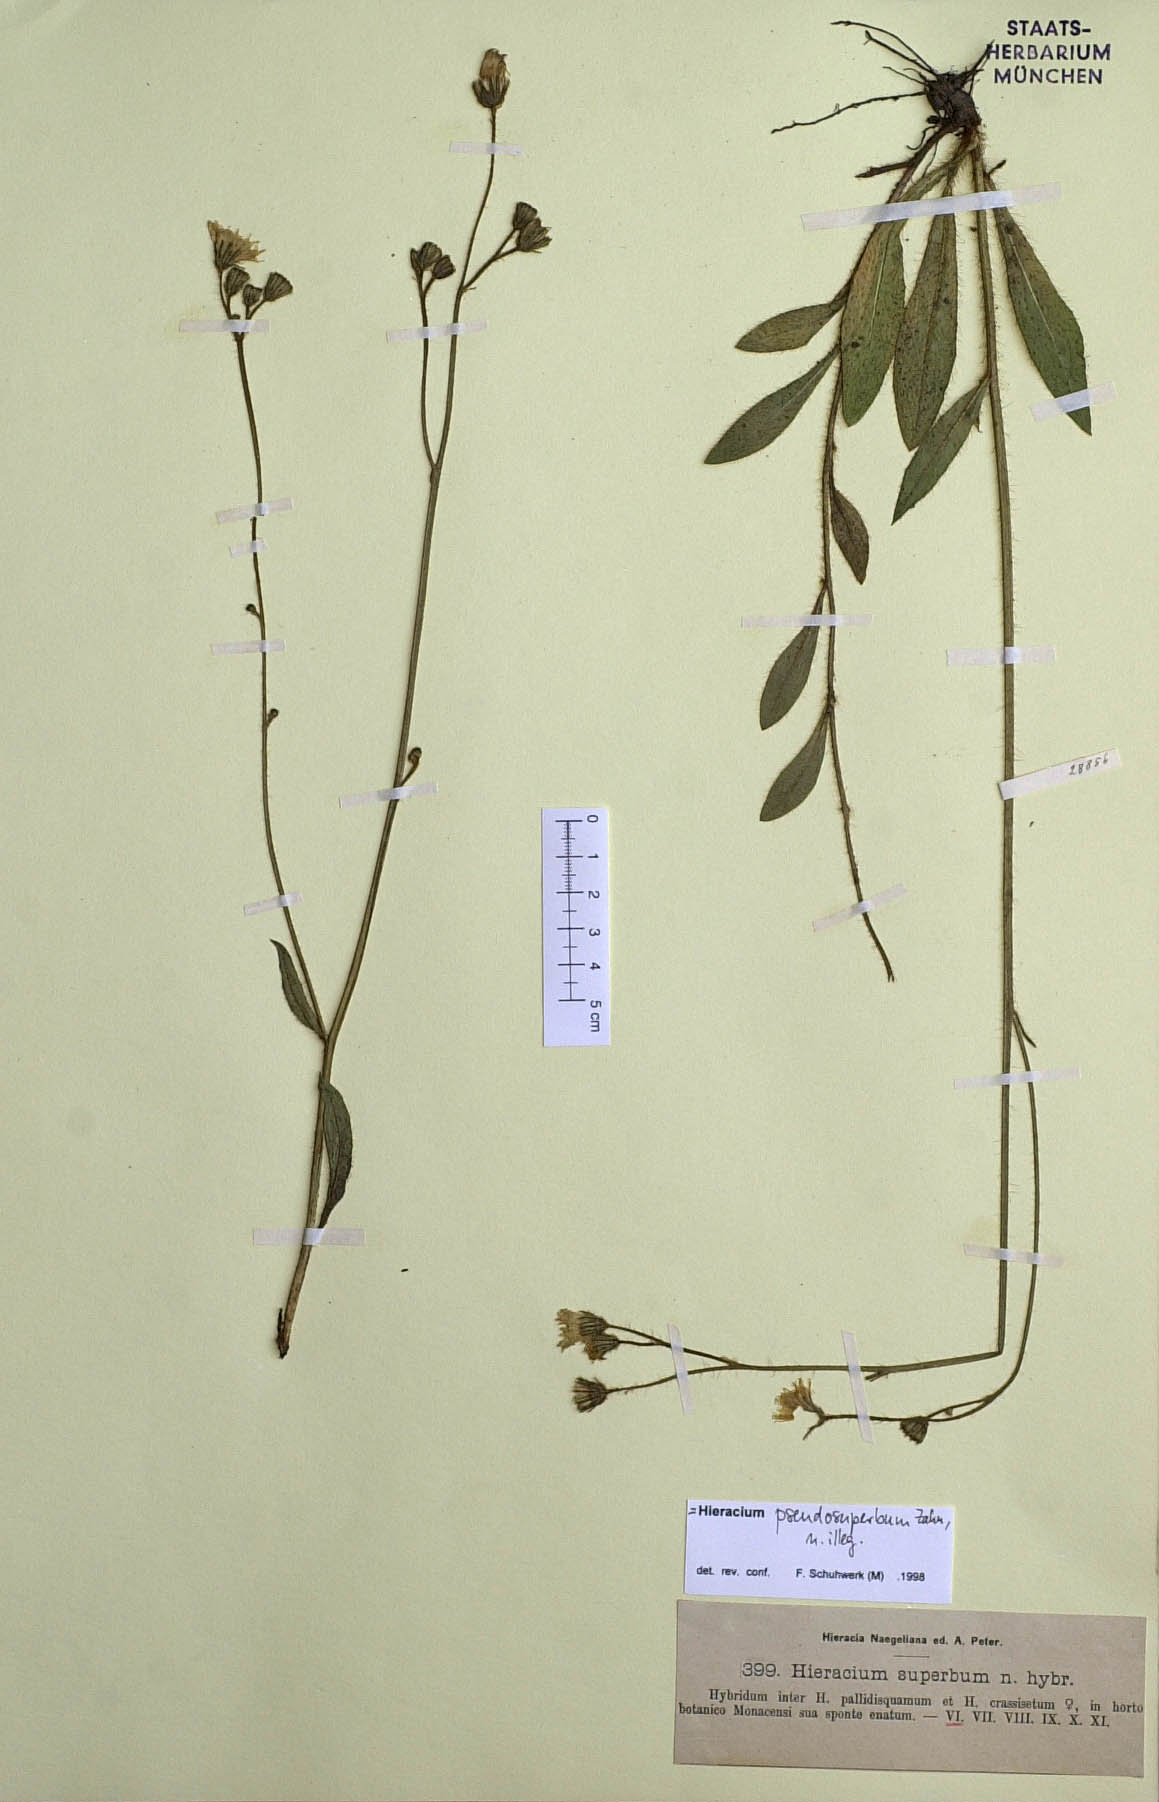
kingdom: Plantae
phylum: Tracheophyta
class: Magnoliopsida
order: Asterales
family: Asteraceae
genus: Hieracium
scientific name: Hieracium superbum
